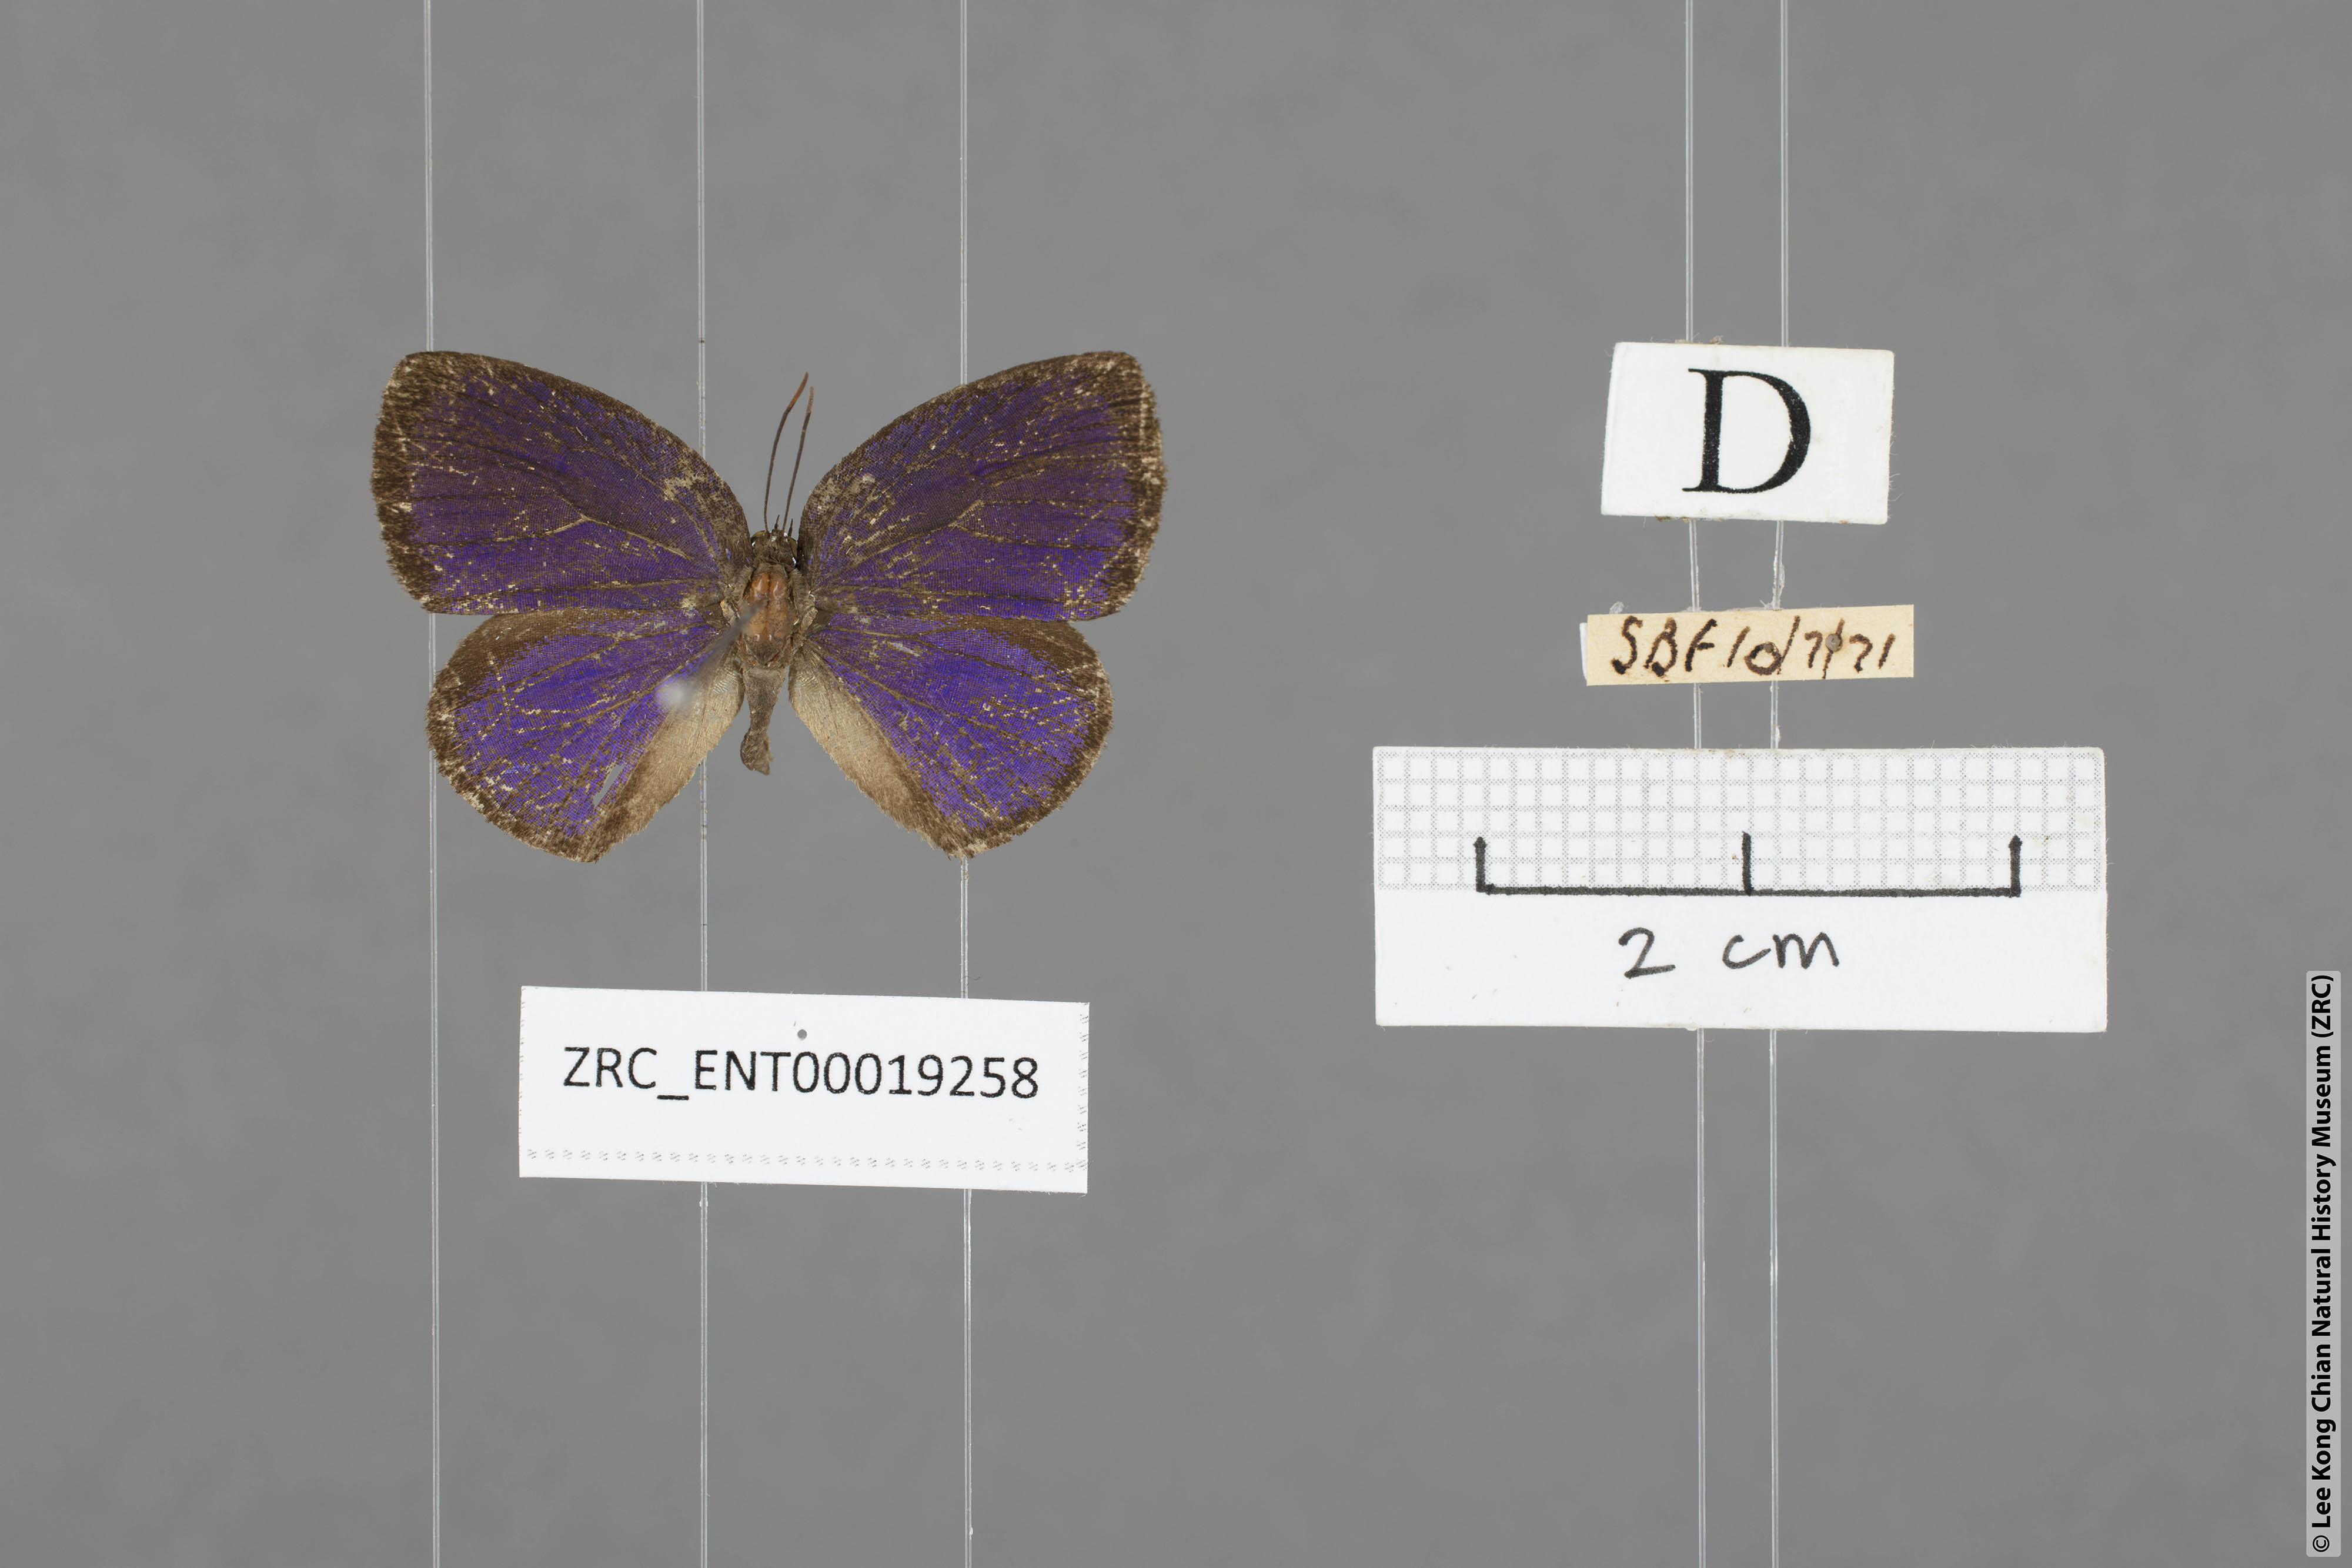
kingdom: Animalia
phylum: Arthropoda
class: Insecta
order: Lepidoptera
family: Lycaenidae
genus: Arhopala
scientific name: Arhopala avathina
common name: Lunulate yellow oakblue
